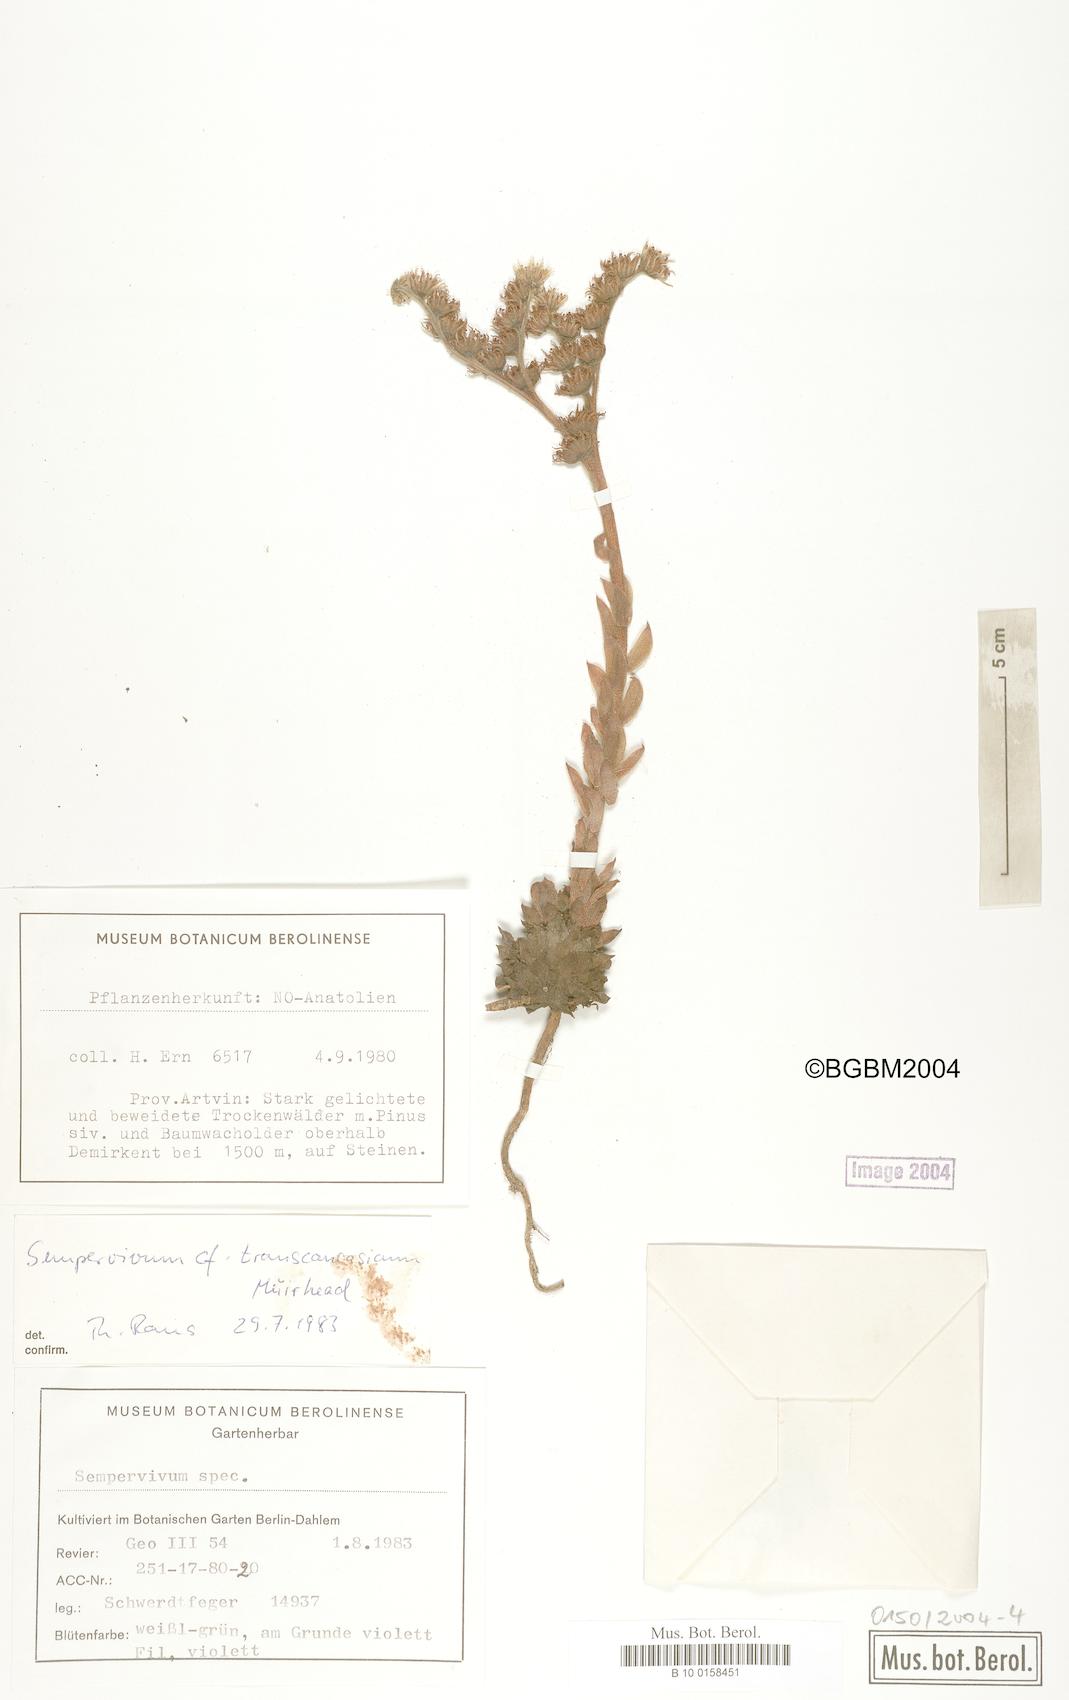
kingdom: Plantae
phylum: Tracheophyta
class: Magnoliopsida
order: Saxifragales
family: Crassulaceae
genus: Sempervivum
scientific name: Sempervivum transcaucasicum
